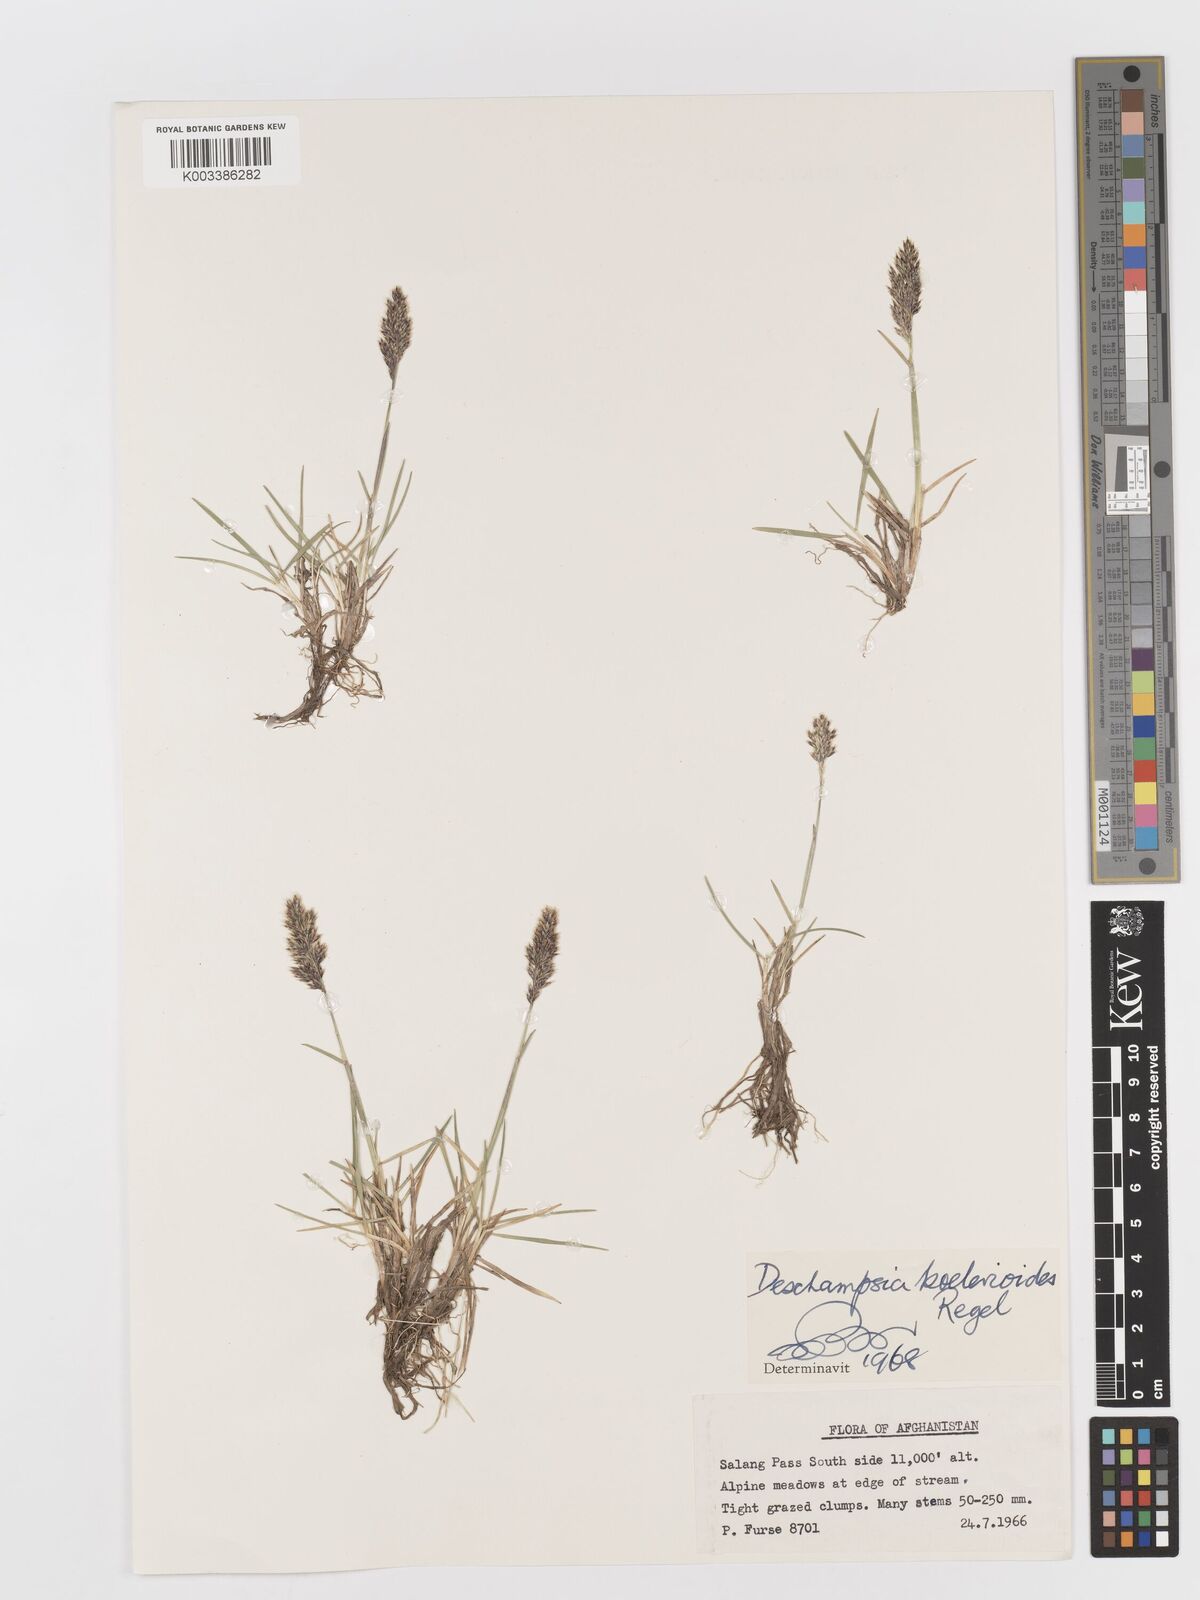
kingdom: Plantae
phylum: Tracheophyta
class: Liliopsida
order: Poales
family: Poaceae
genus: Deschampsia
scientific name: Deschampsia koelerioides
